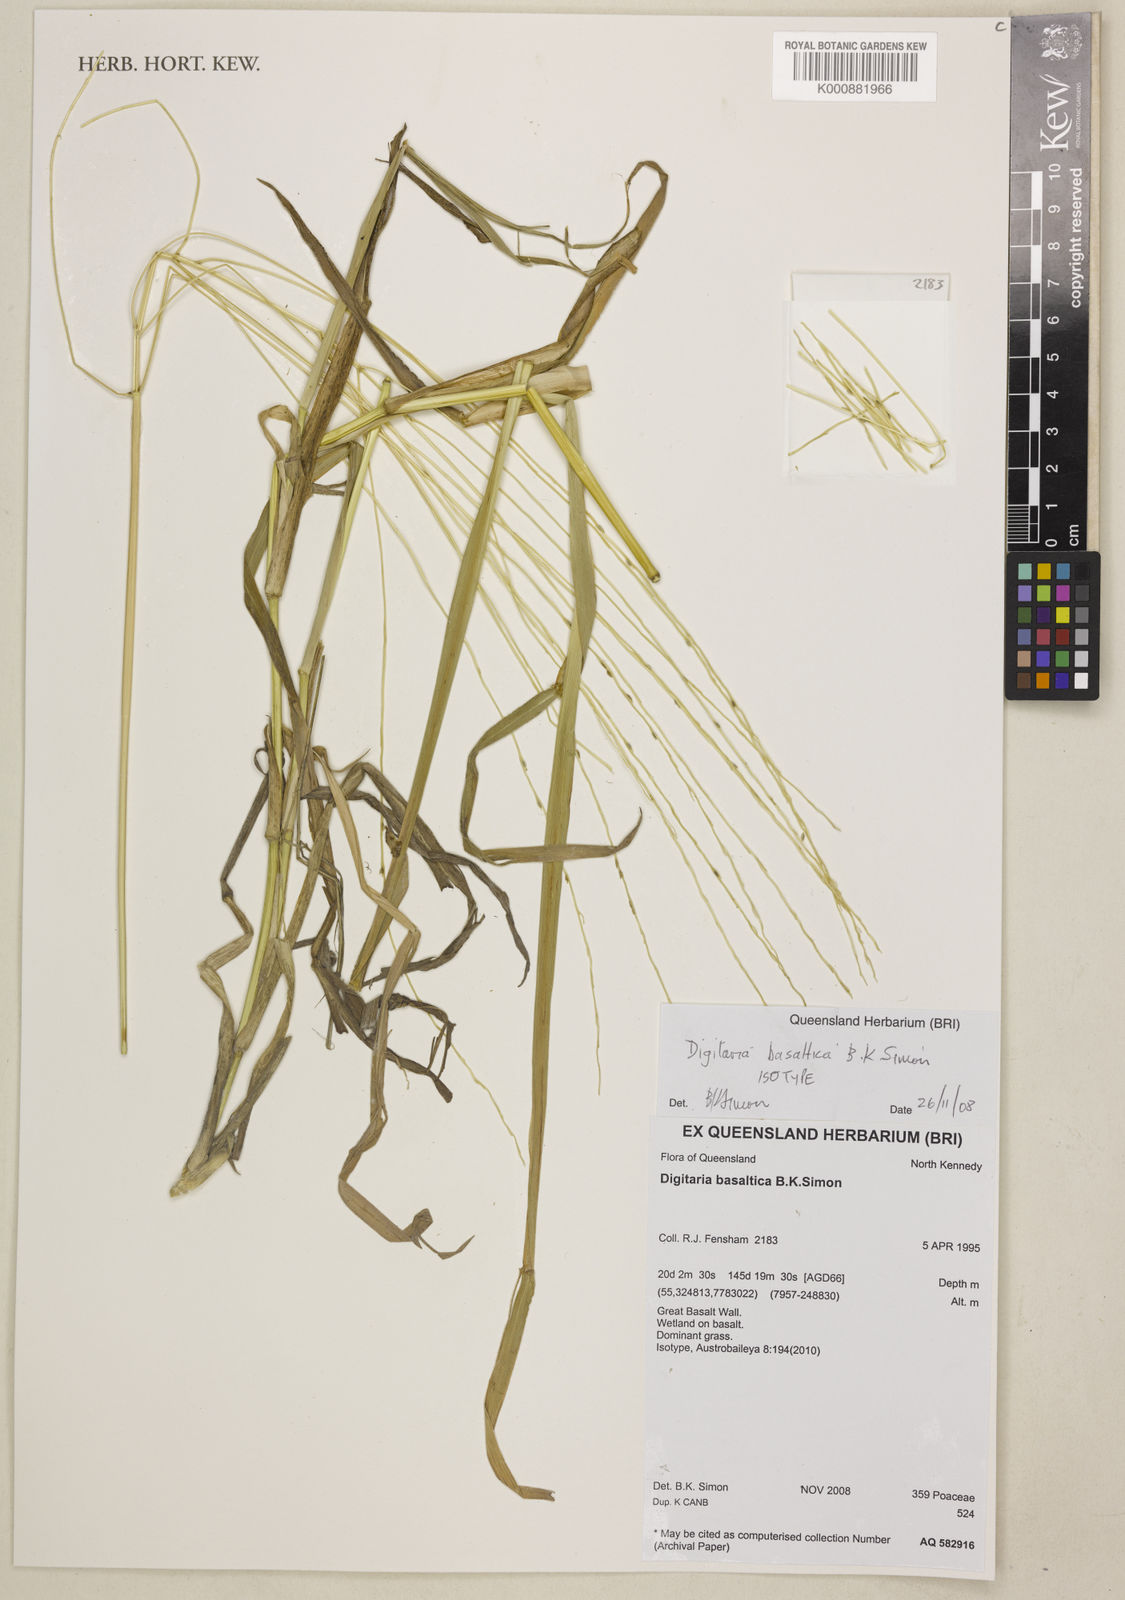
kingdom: Plantae
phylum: Tracheophyta
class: Liliopsida
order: Poales
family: Poaceae
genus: Digitaria
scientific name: Digitaria basaltica
